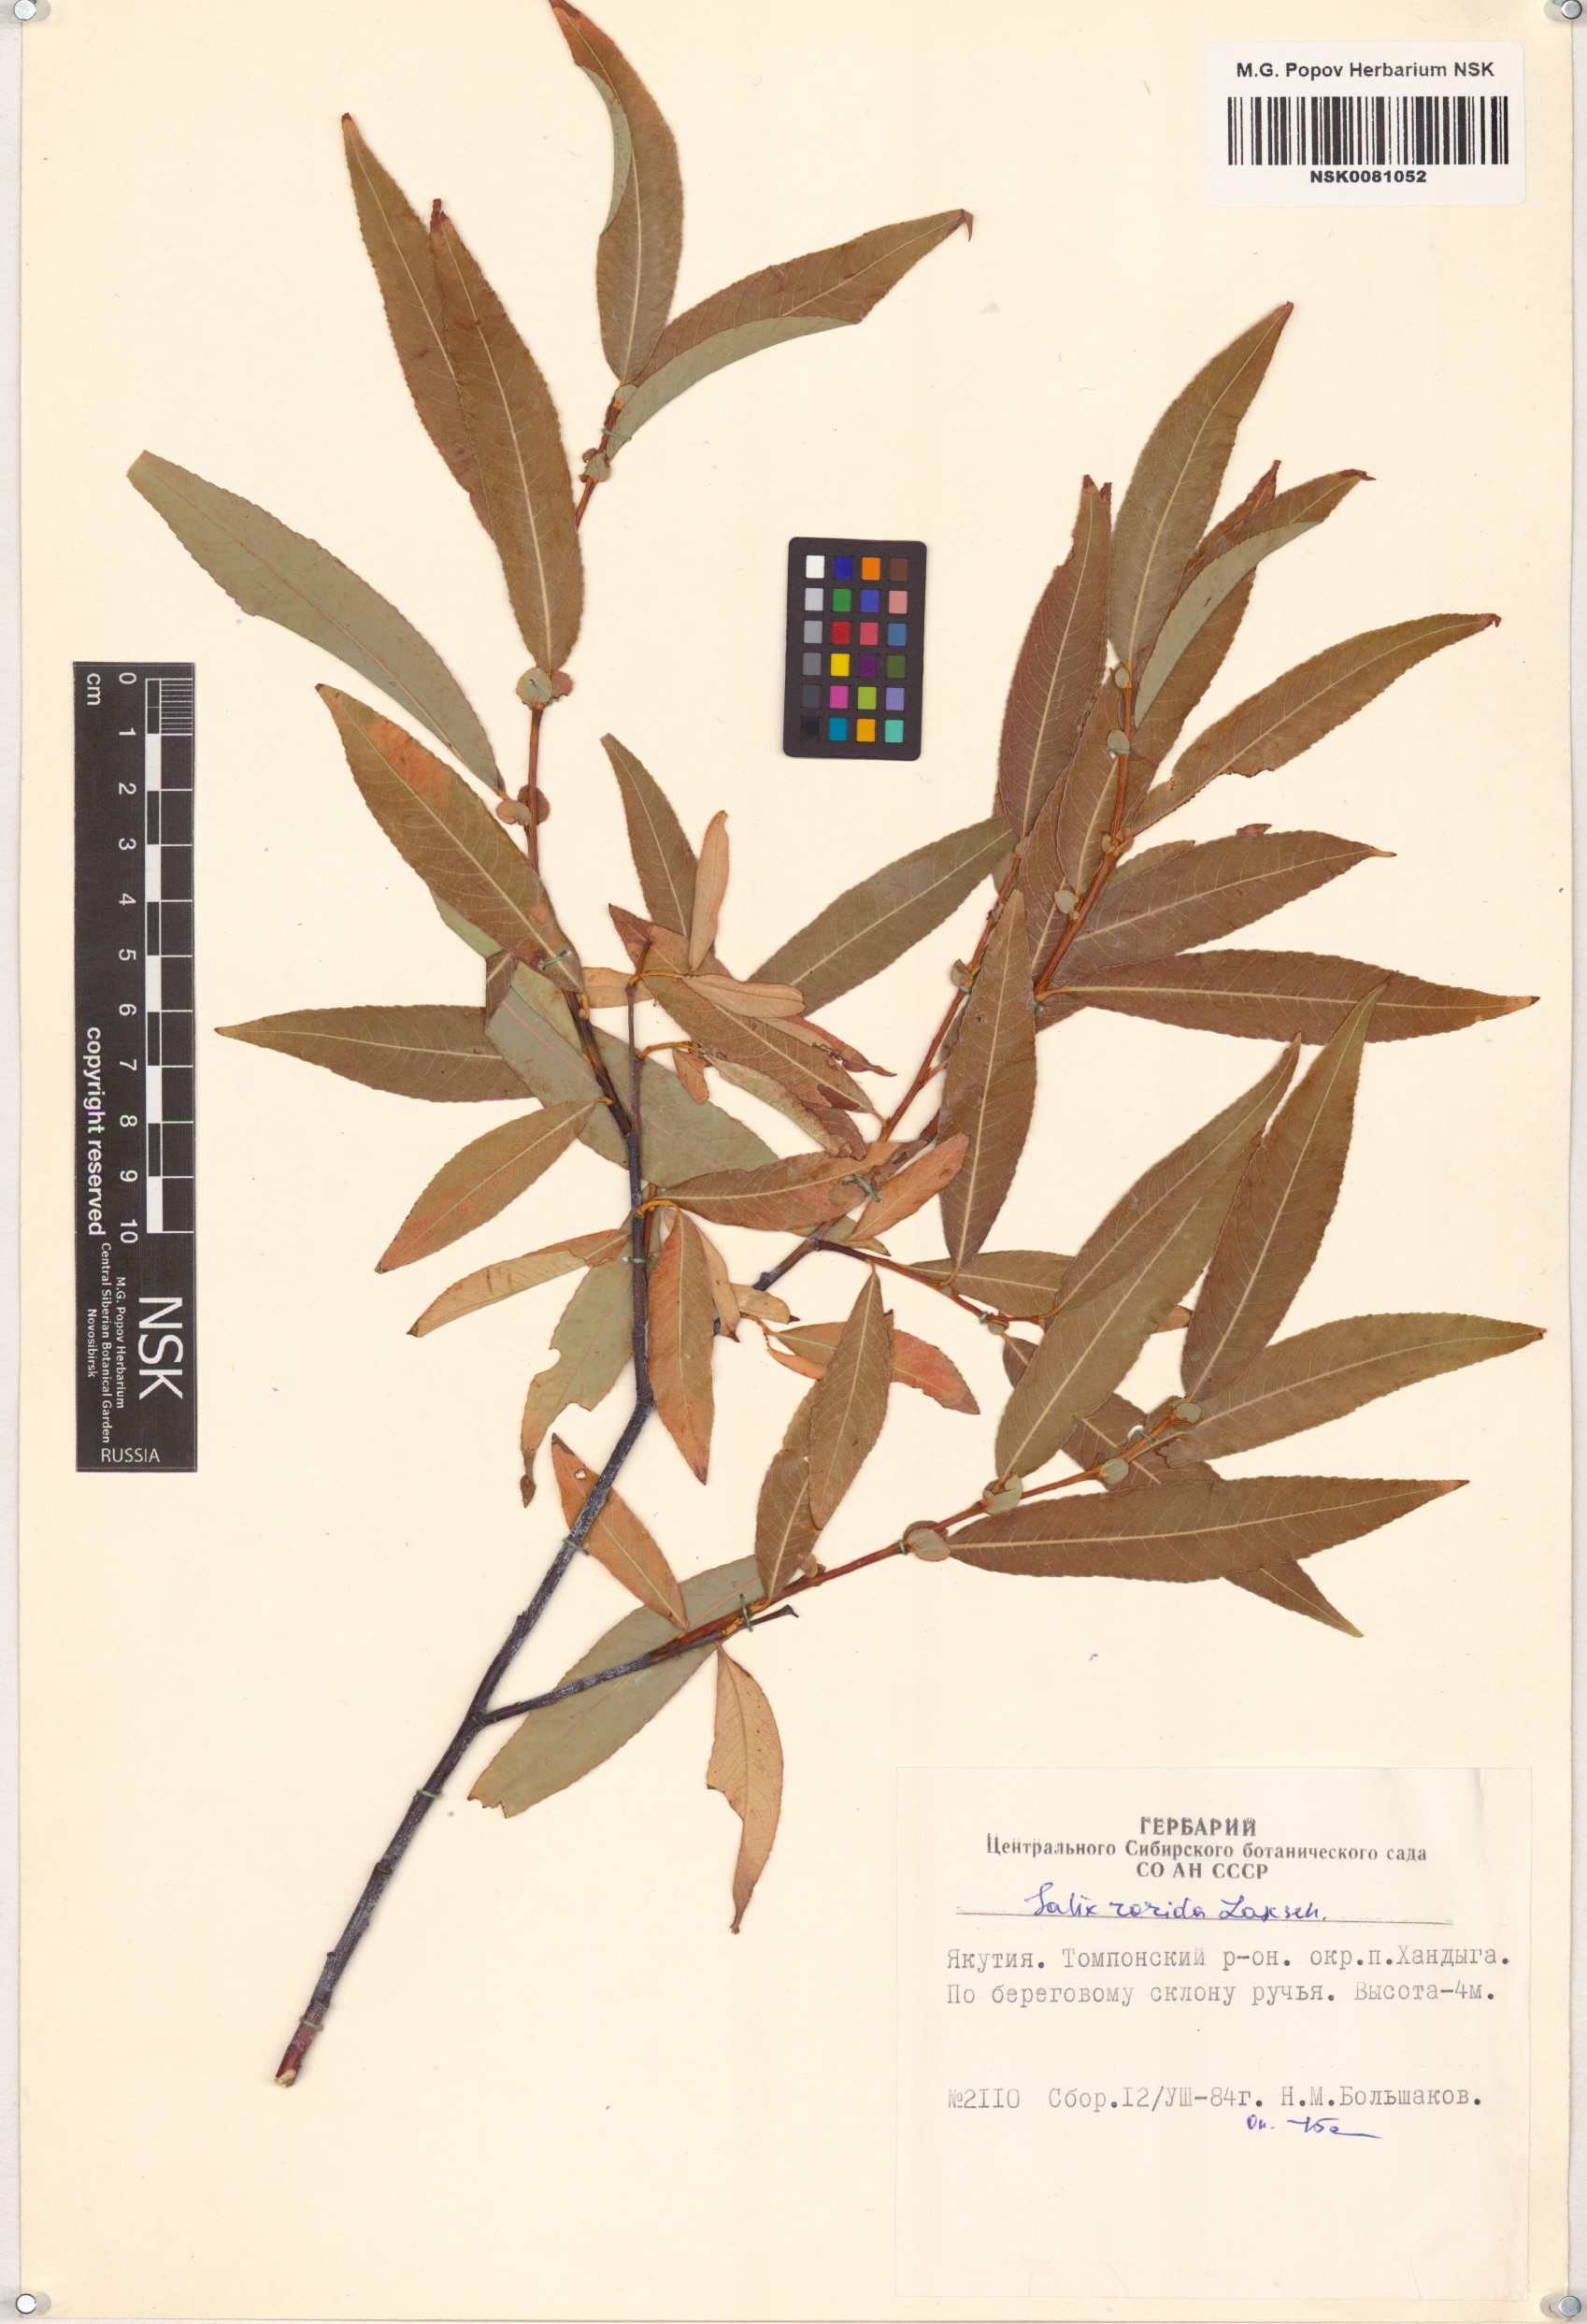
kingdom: Plantae
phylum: Tracheophyta
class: Magnoliopsida
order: Malpighiales
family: Salicaceae
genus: Salix
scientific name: Salix rorida
